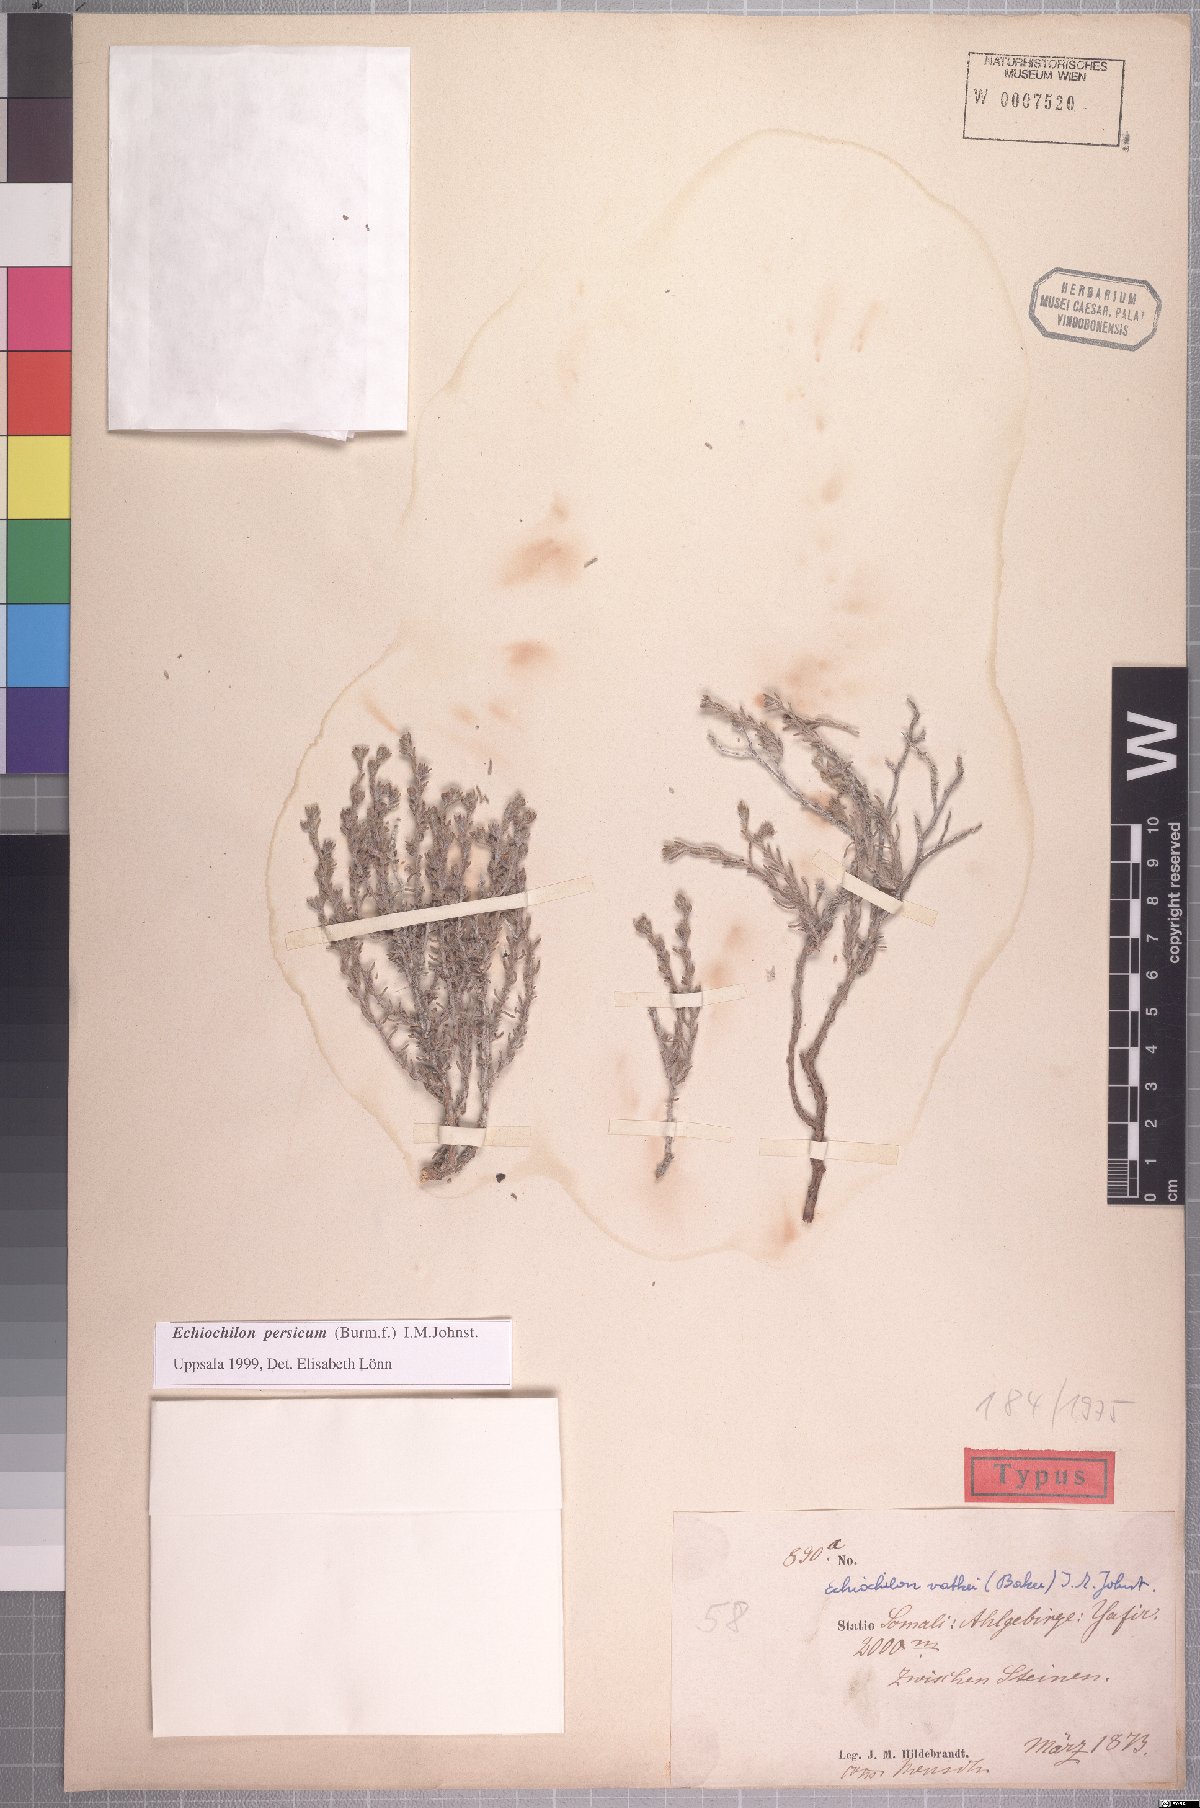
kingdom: Plantae
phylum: Tracheophyta
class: Magnoliopsida
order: Boraginales
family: Boraginaceae
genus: Echiochilon
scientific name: Echiochilon persicum
